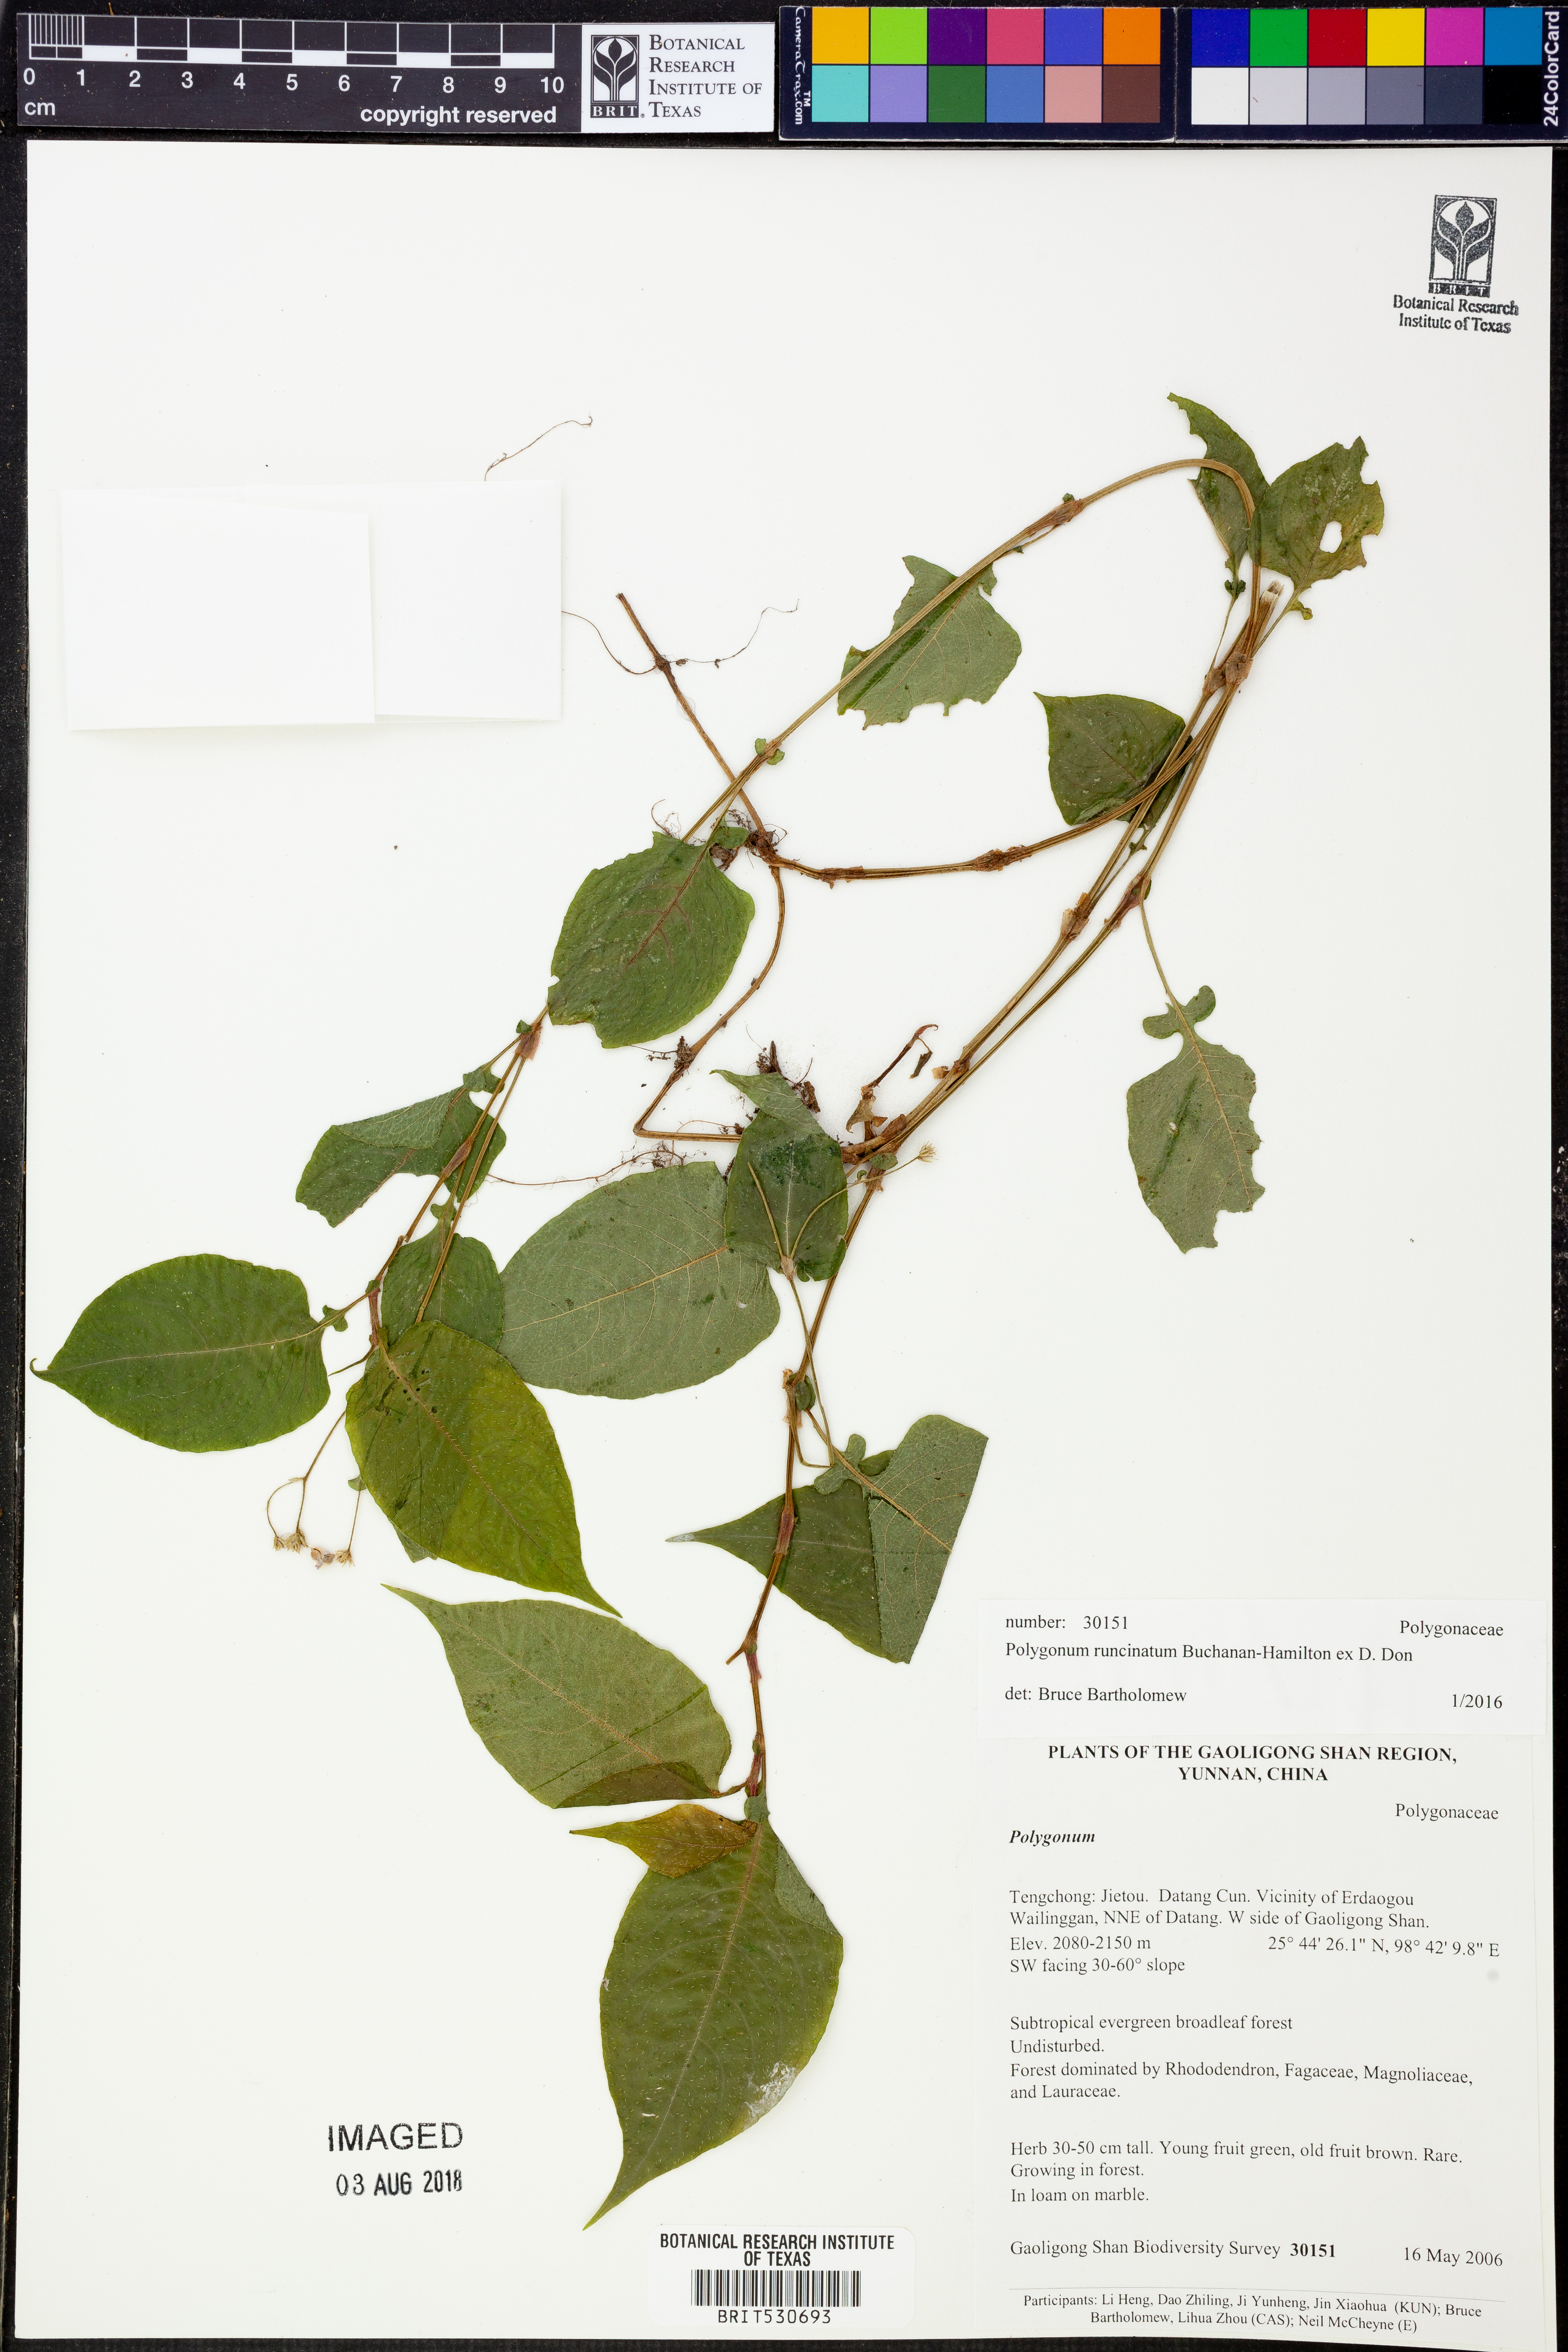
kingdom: Plantae
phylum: Tracheophyta
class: Magnoliopsida
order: Caryophyllales
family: Polygonaceae
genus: Persicaria
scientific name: Persicaria runcinata
